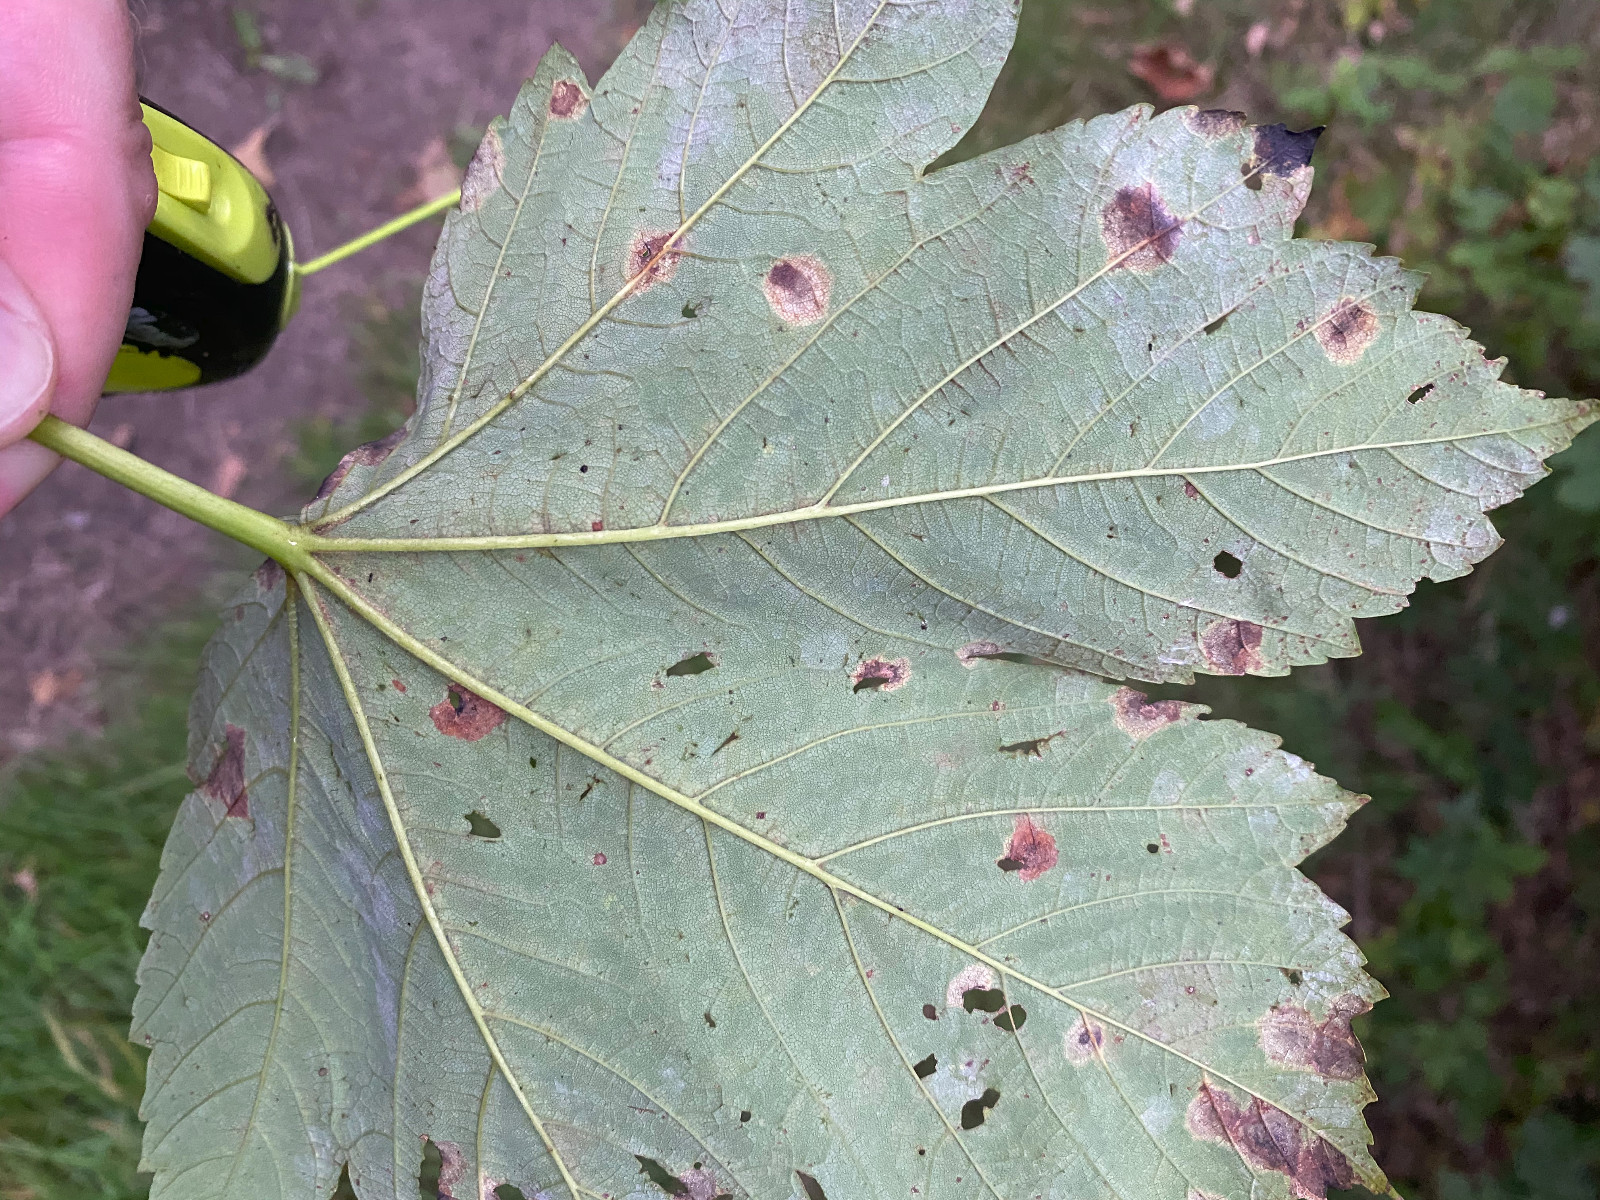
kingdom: Fungi
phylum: Ascomycota
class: Leotiomycetes
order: Rhytismatales
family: Rhytismataceae
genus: Rhytisma
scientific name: Rhytisma acerinum
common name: ahorn-rynkeplet
